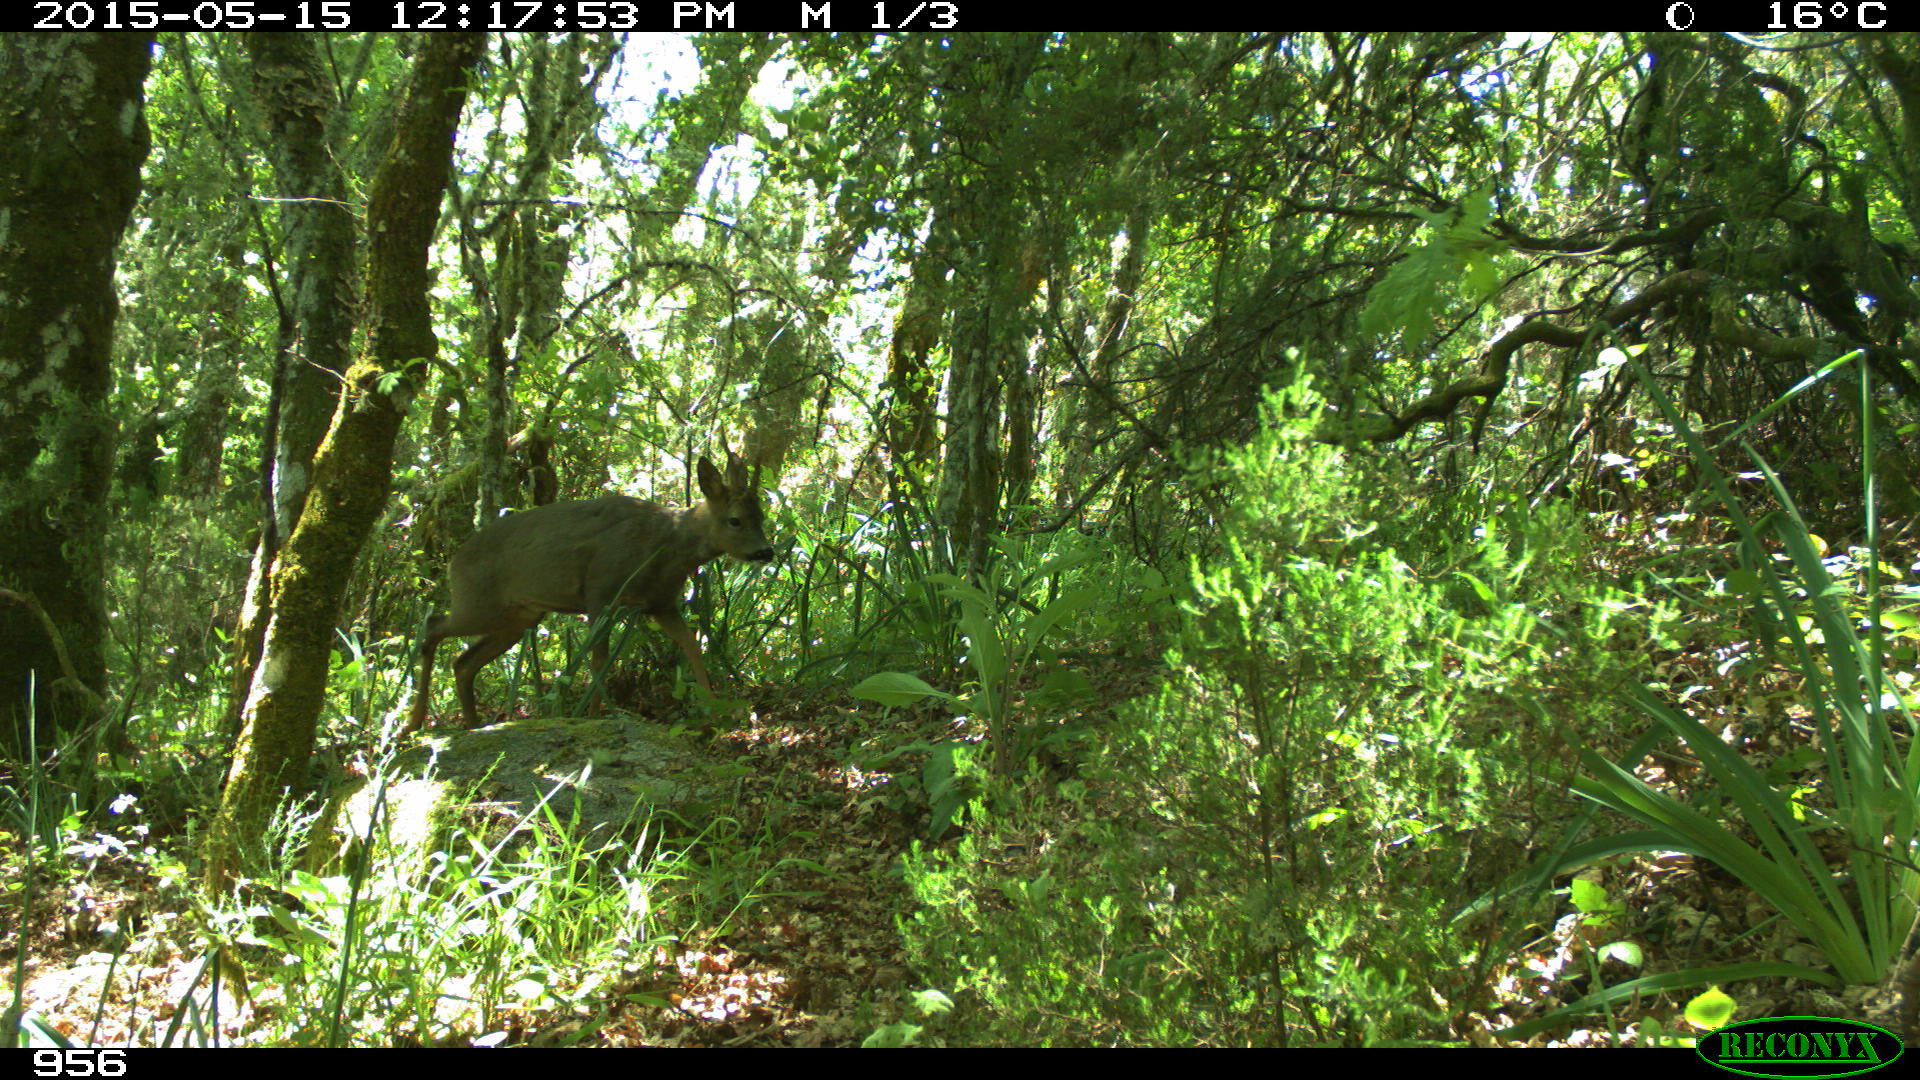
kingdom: Animalia
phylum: Chordata
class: Mammalia
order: Artiodactyla
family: Cervidae
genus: Capreolus
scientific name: Capreolus capreolus
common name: Western roe deer
